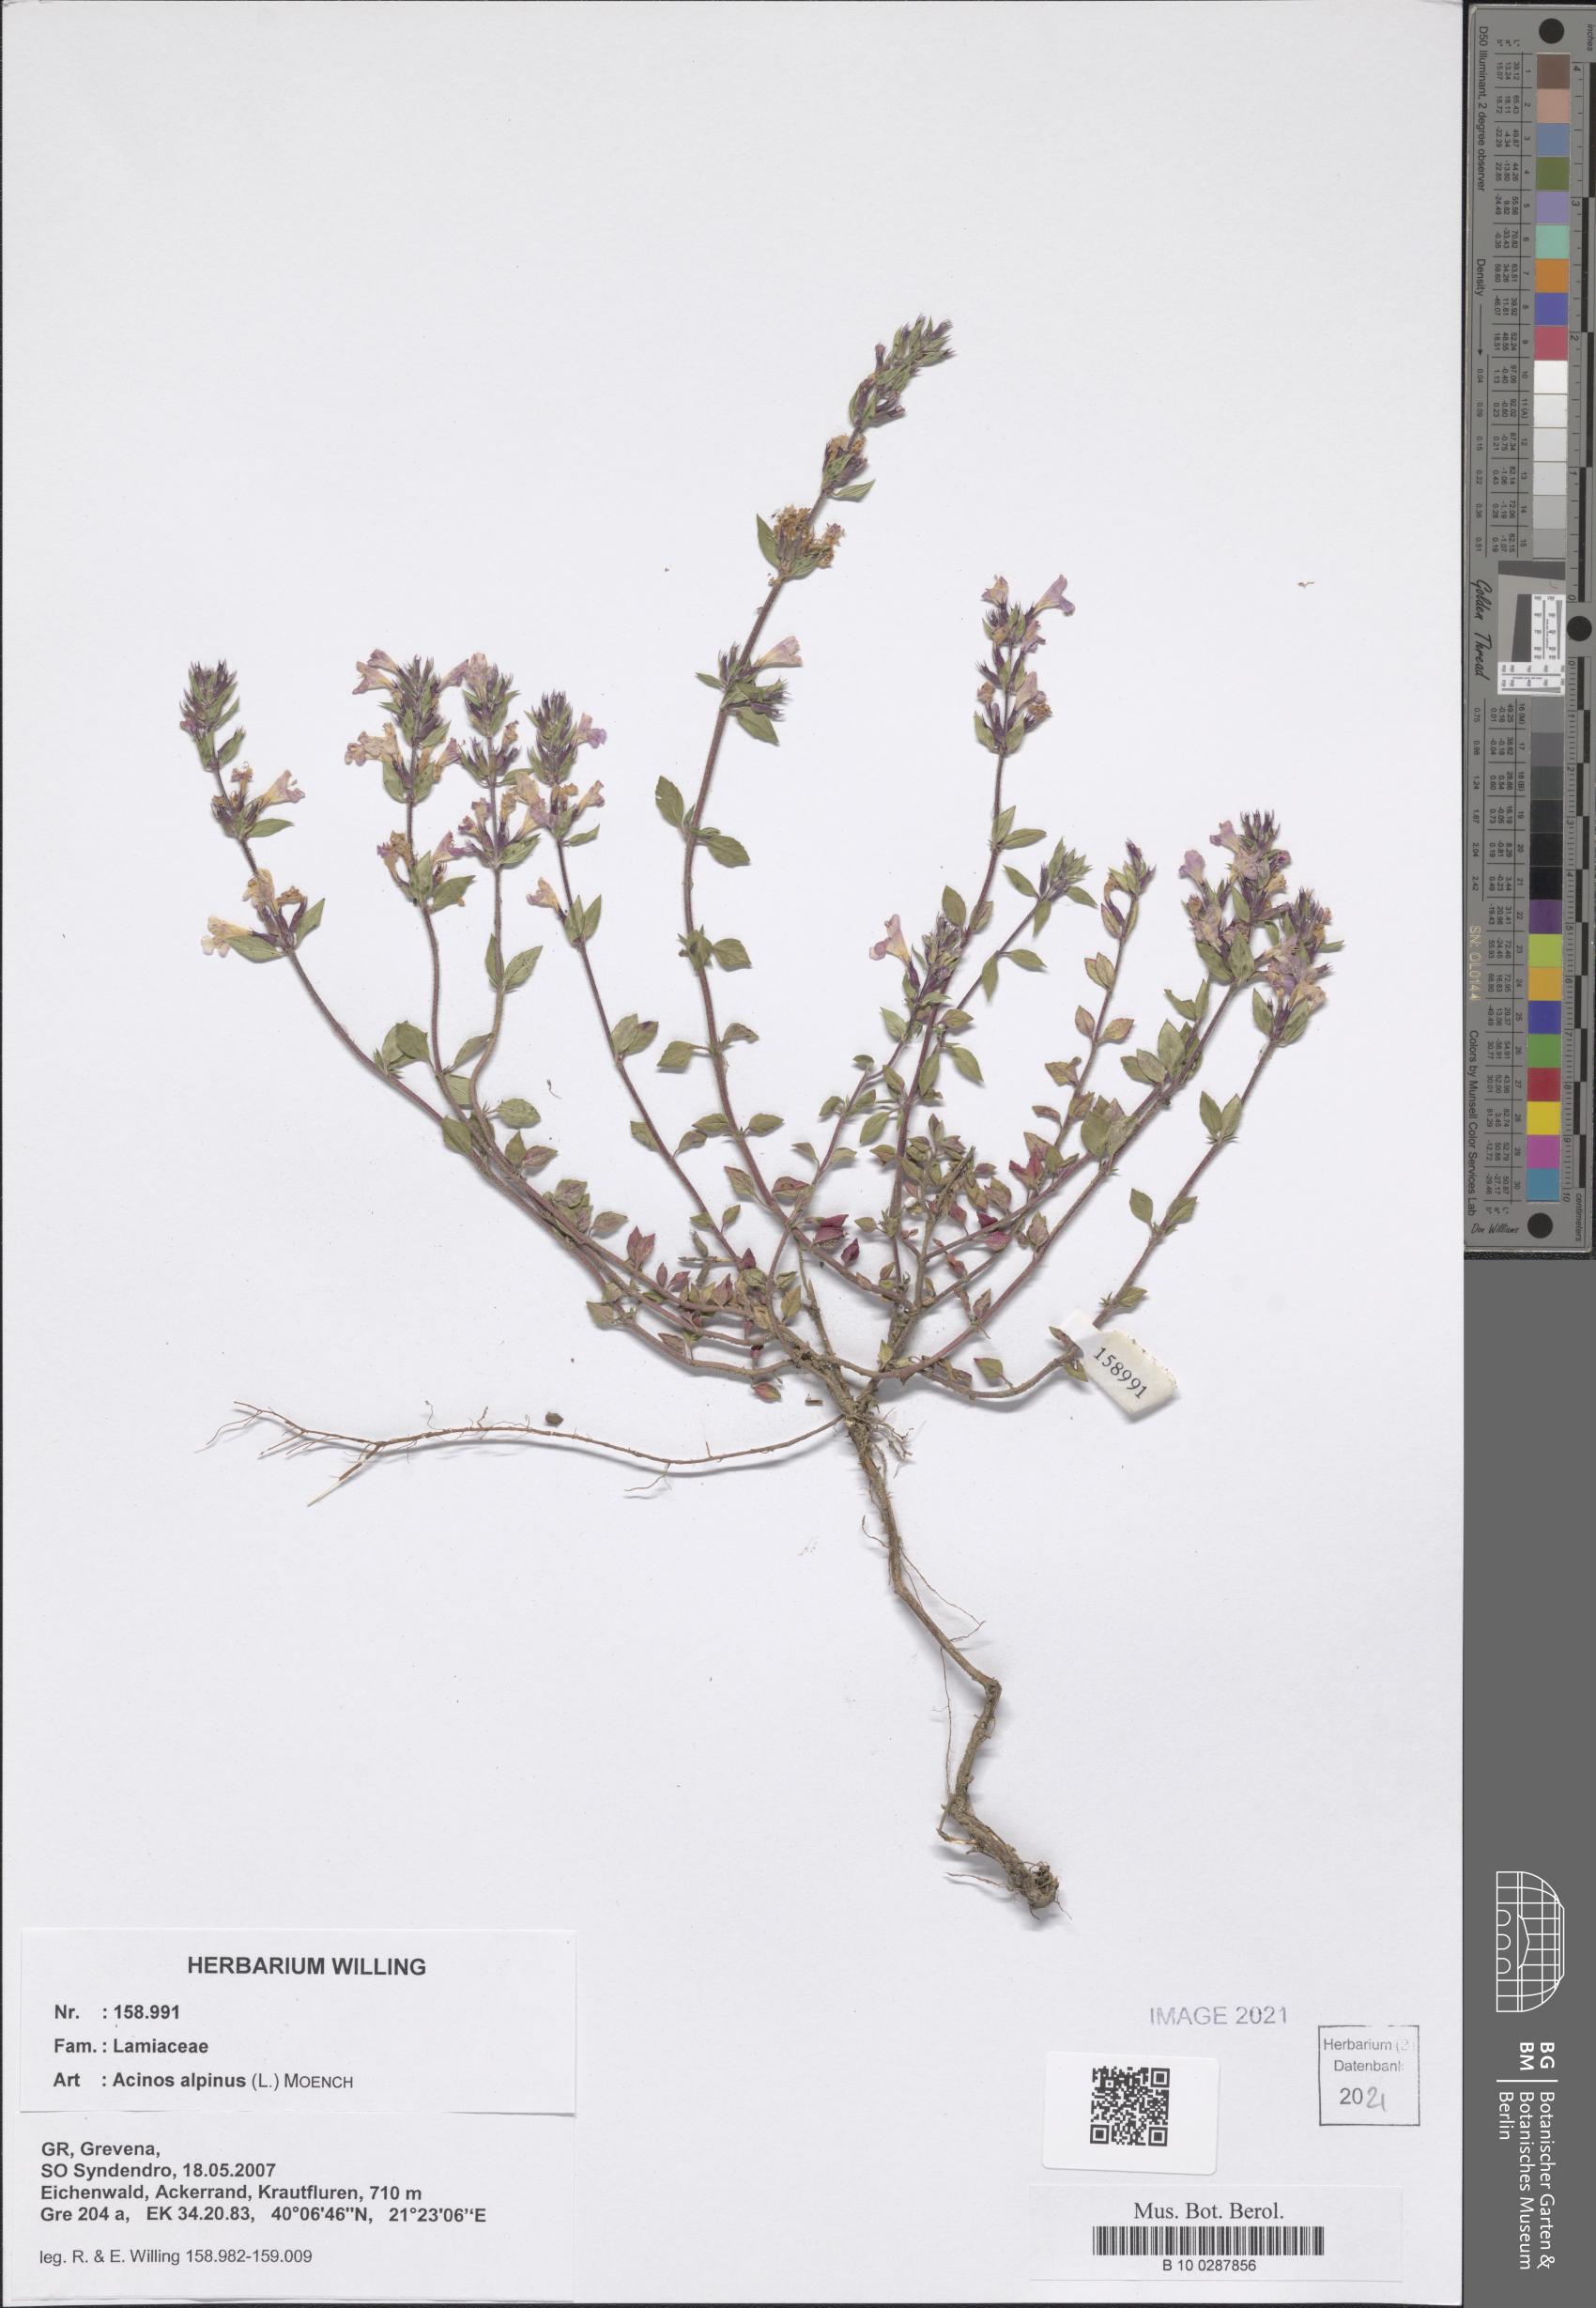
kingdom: Plantae
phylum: Tracheophyta
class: Magnoliopsida
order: Lamiales
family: Lamiaceae
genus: Clinopodium
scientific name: Clinopodium alpinum
